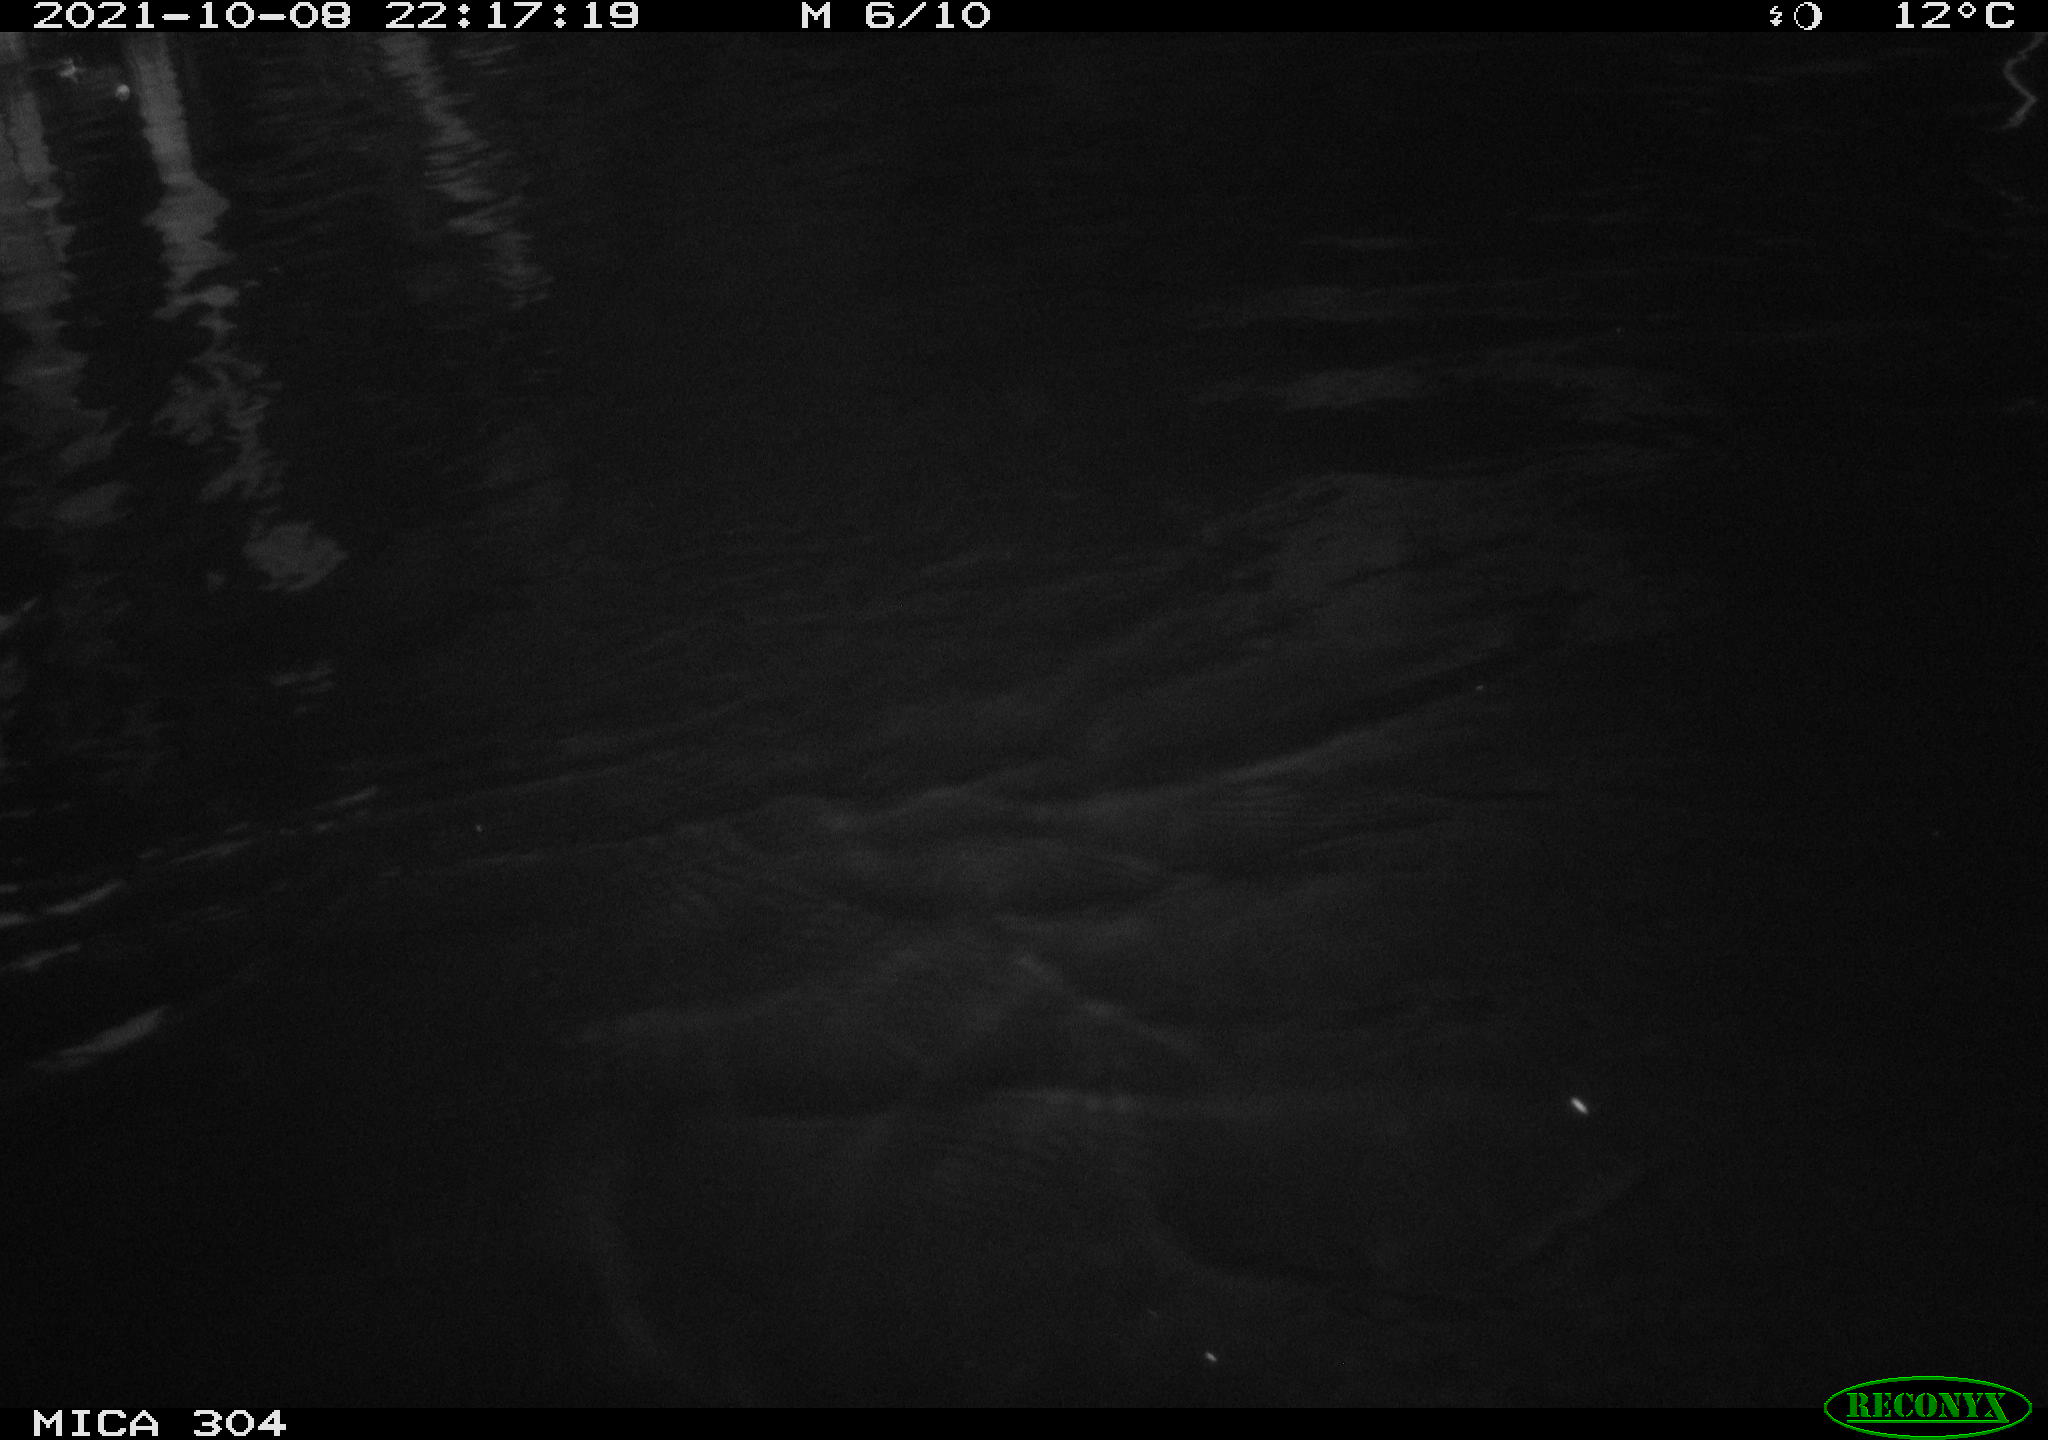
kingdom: Animalia
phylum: Chordata
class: Mammalia
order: Rodentia
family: Muridae
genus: Rattus
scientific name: Rattus norvegicus
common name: Brown rat
